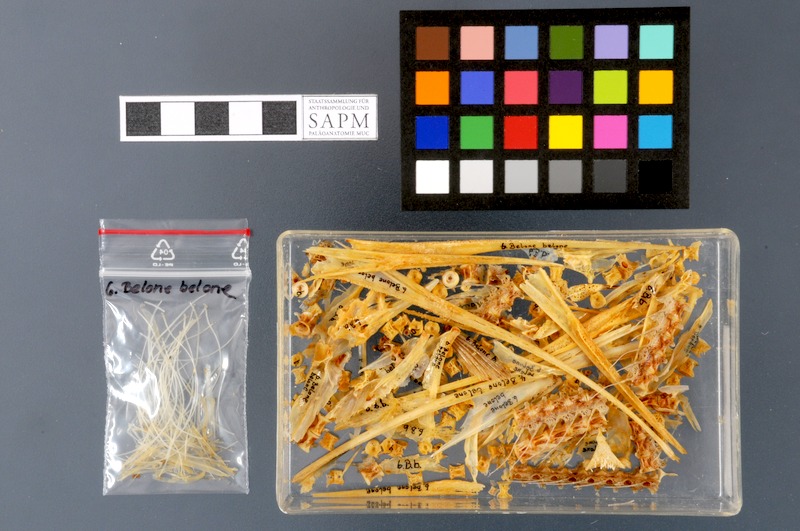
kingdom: Animalia
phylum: Chordata
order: Beloniformes
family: Belonidae
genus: Belone
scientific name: Belone belone
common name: Garfish
